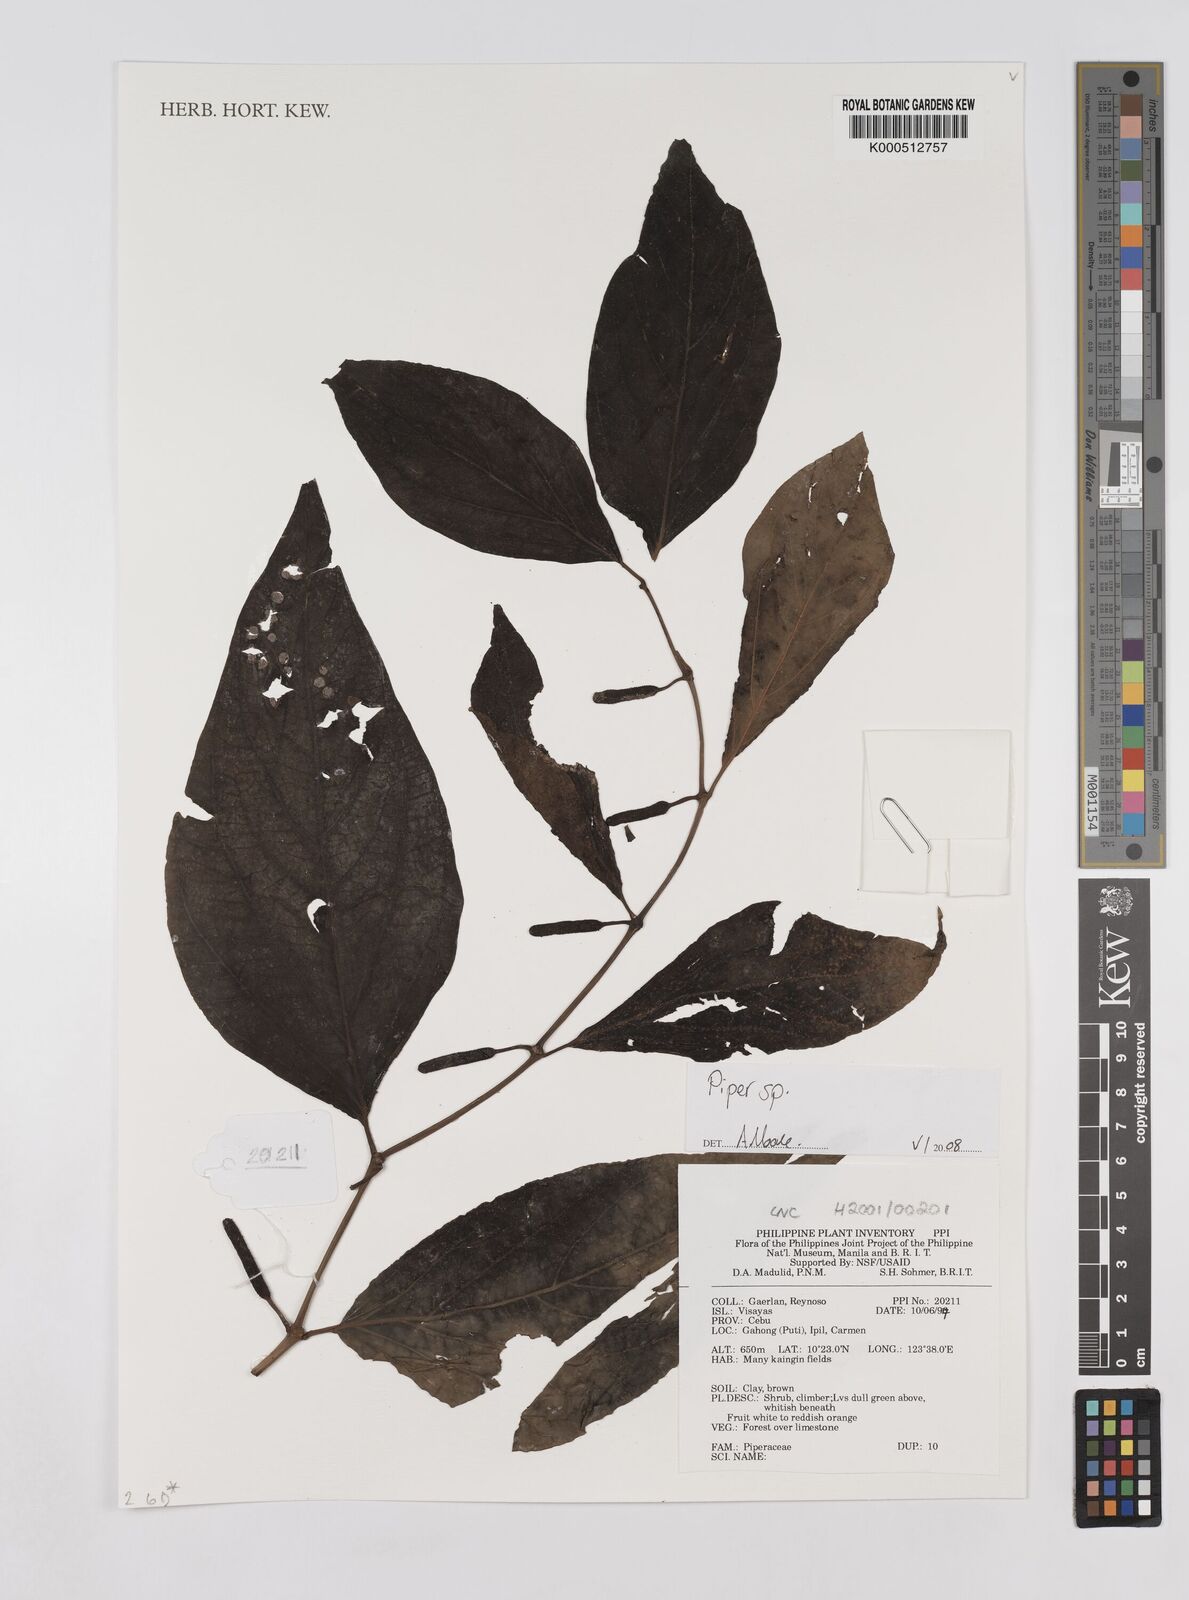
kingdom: Plantae
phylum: Tracheophyta
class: Magnoliopsida
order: Piperales
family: Piperaceae
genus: Piper
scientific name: Piper
